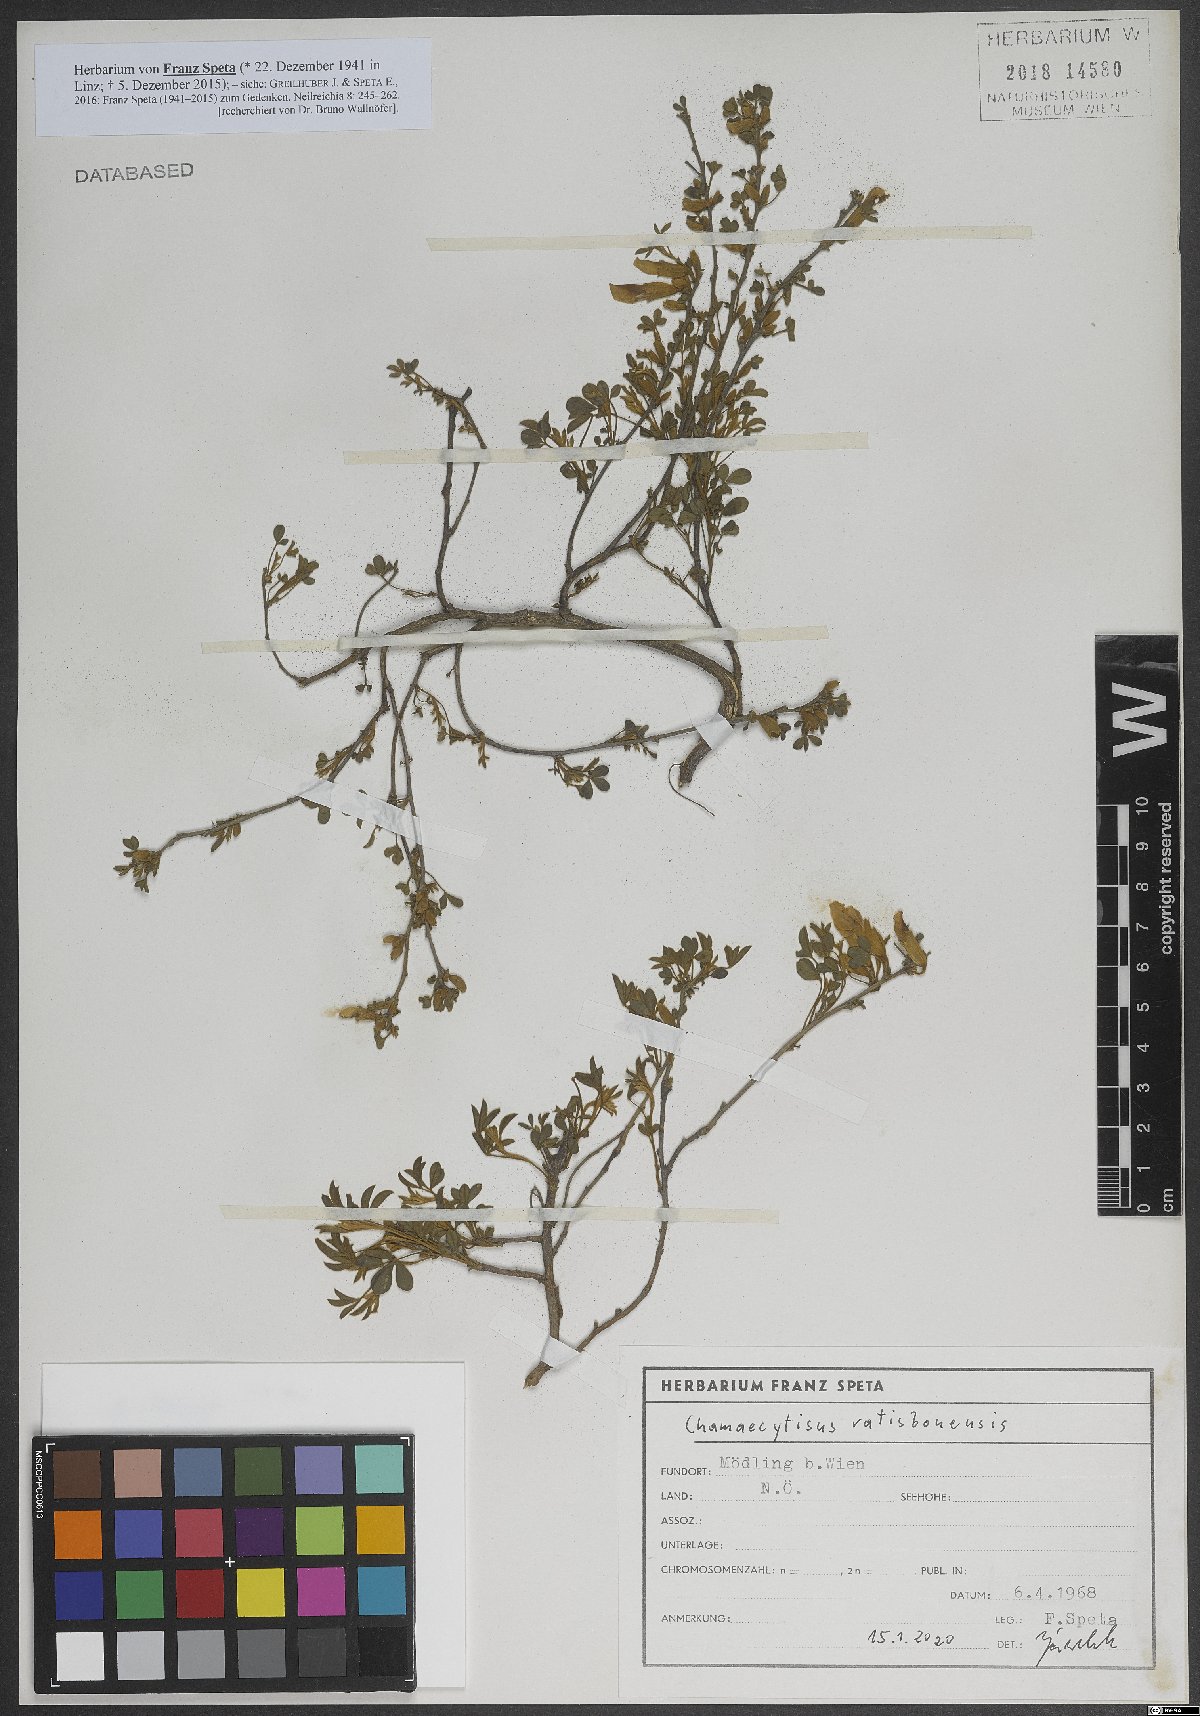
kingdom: Plantae
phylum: Tracheophyta
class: Magnoliopsida
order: Fabales
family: Fabaceae
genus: Chamaecytisus
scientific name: Chamaecytisus ratisbonensis
